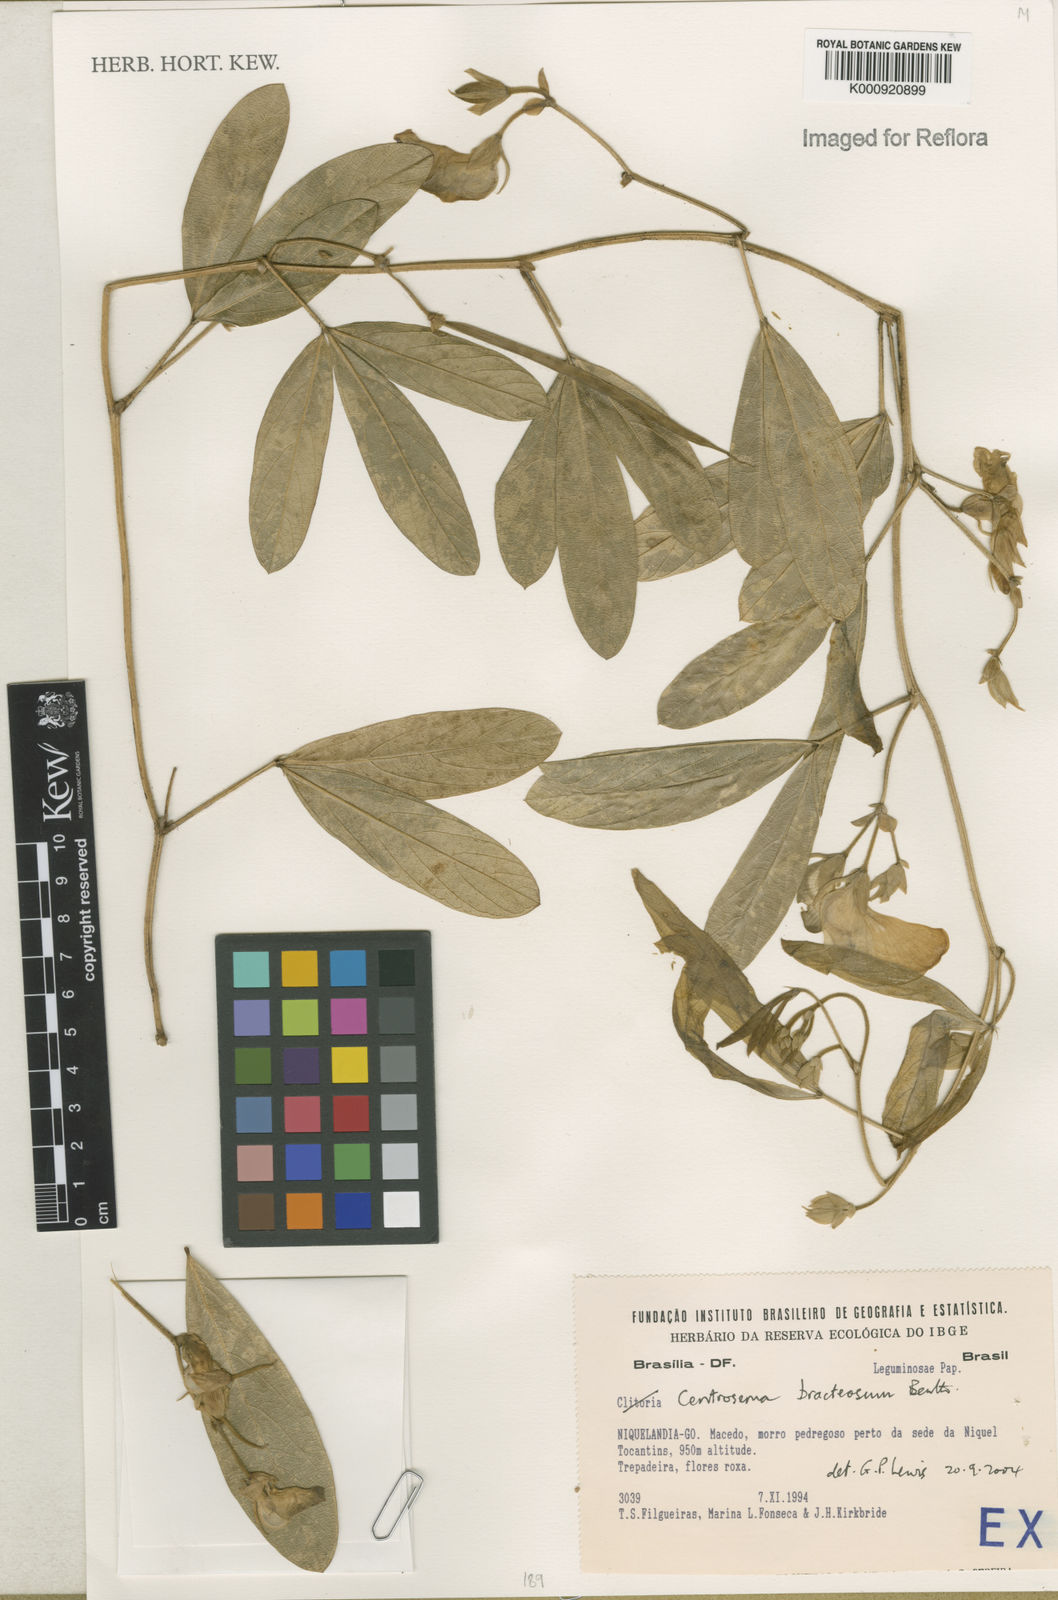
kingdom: Plantae
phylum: Tracheophyta
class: Magnoliopsida
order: Fabales
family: Fabaceae
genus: Centrosema
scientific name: Centrosema bracteosum
